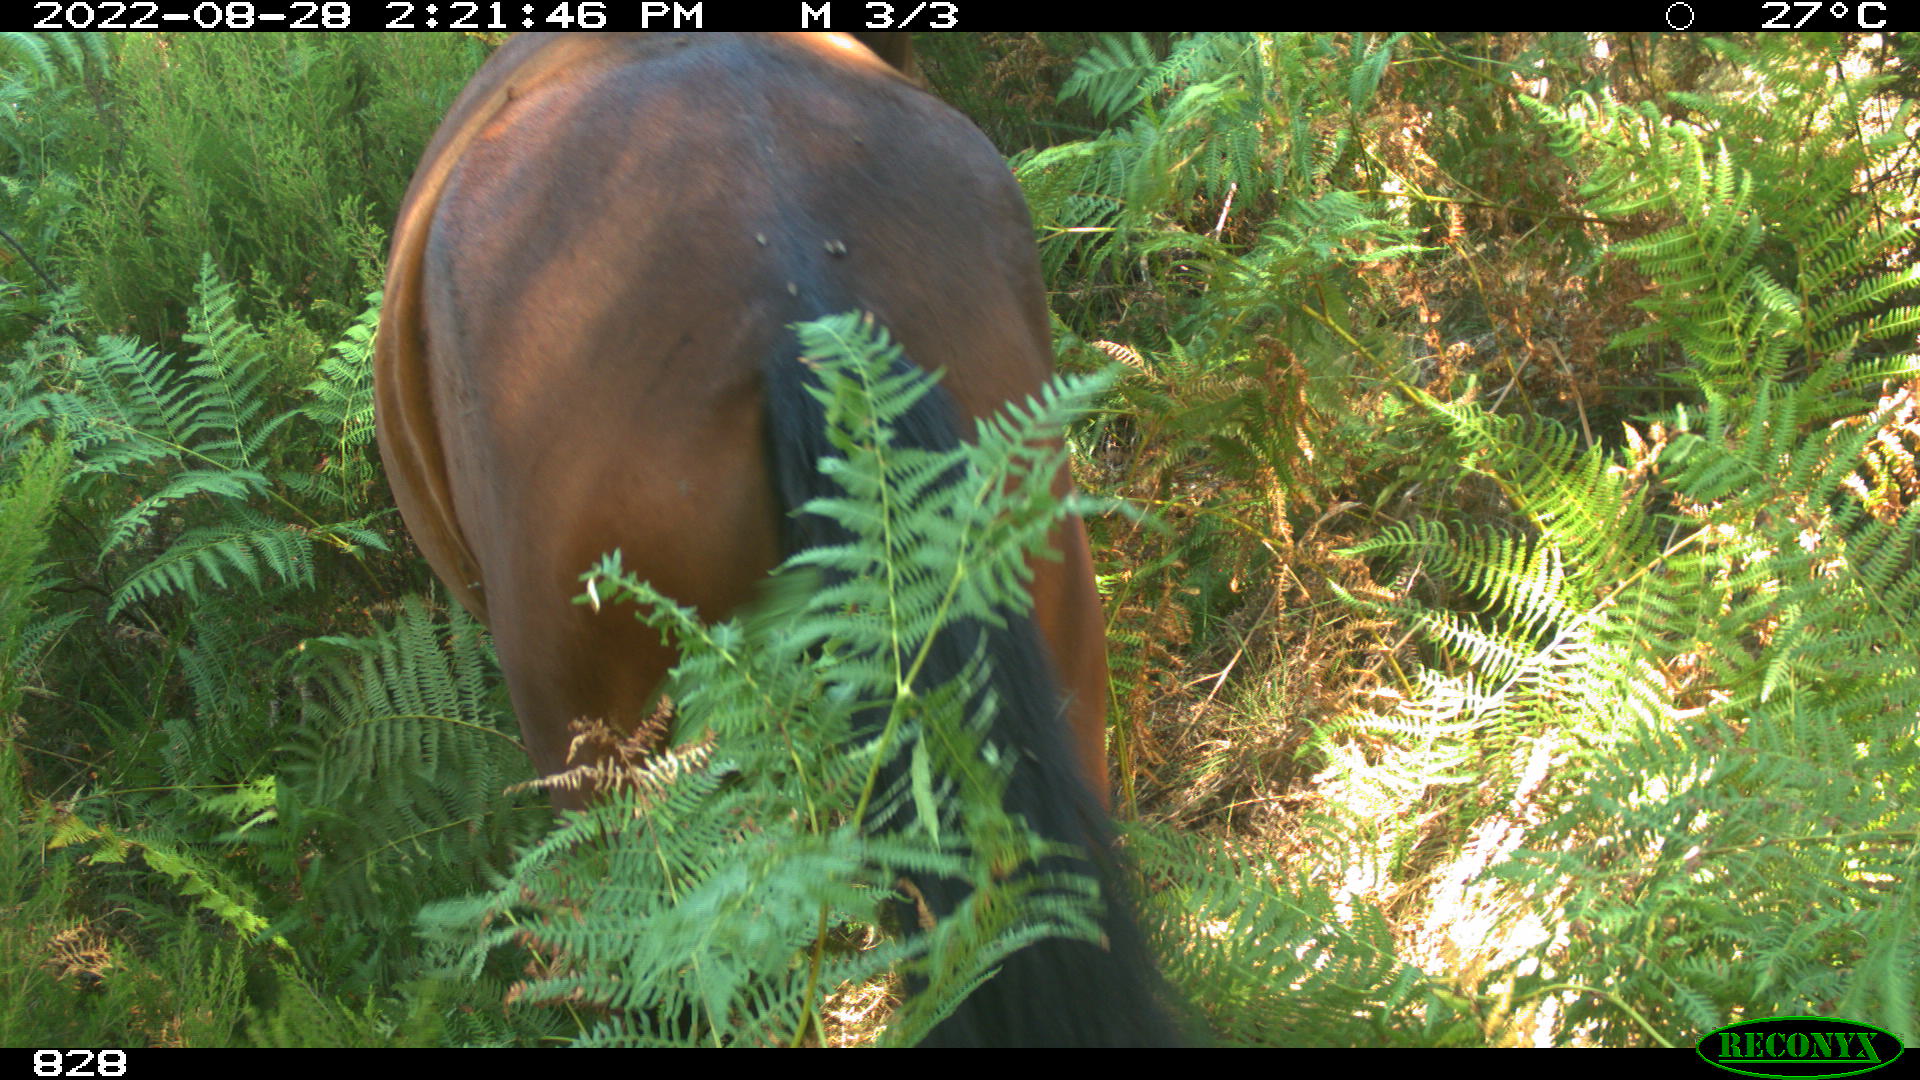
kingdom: Animalia
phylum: Chordata
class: Mammalia
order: Perissodactyla
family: Equidae
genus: Equus
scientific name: Equus caballus
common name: Horse
